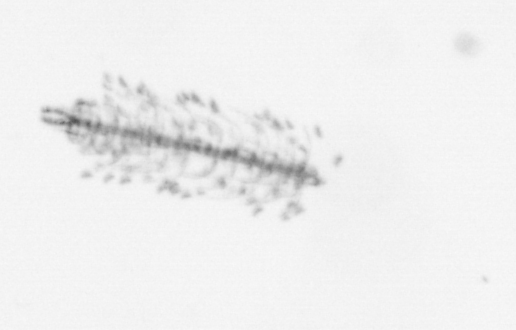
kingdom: Chromista
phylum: Ochrophyta
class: Bacillariophyceae
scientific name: Bacillariophyceae
